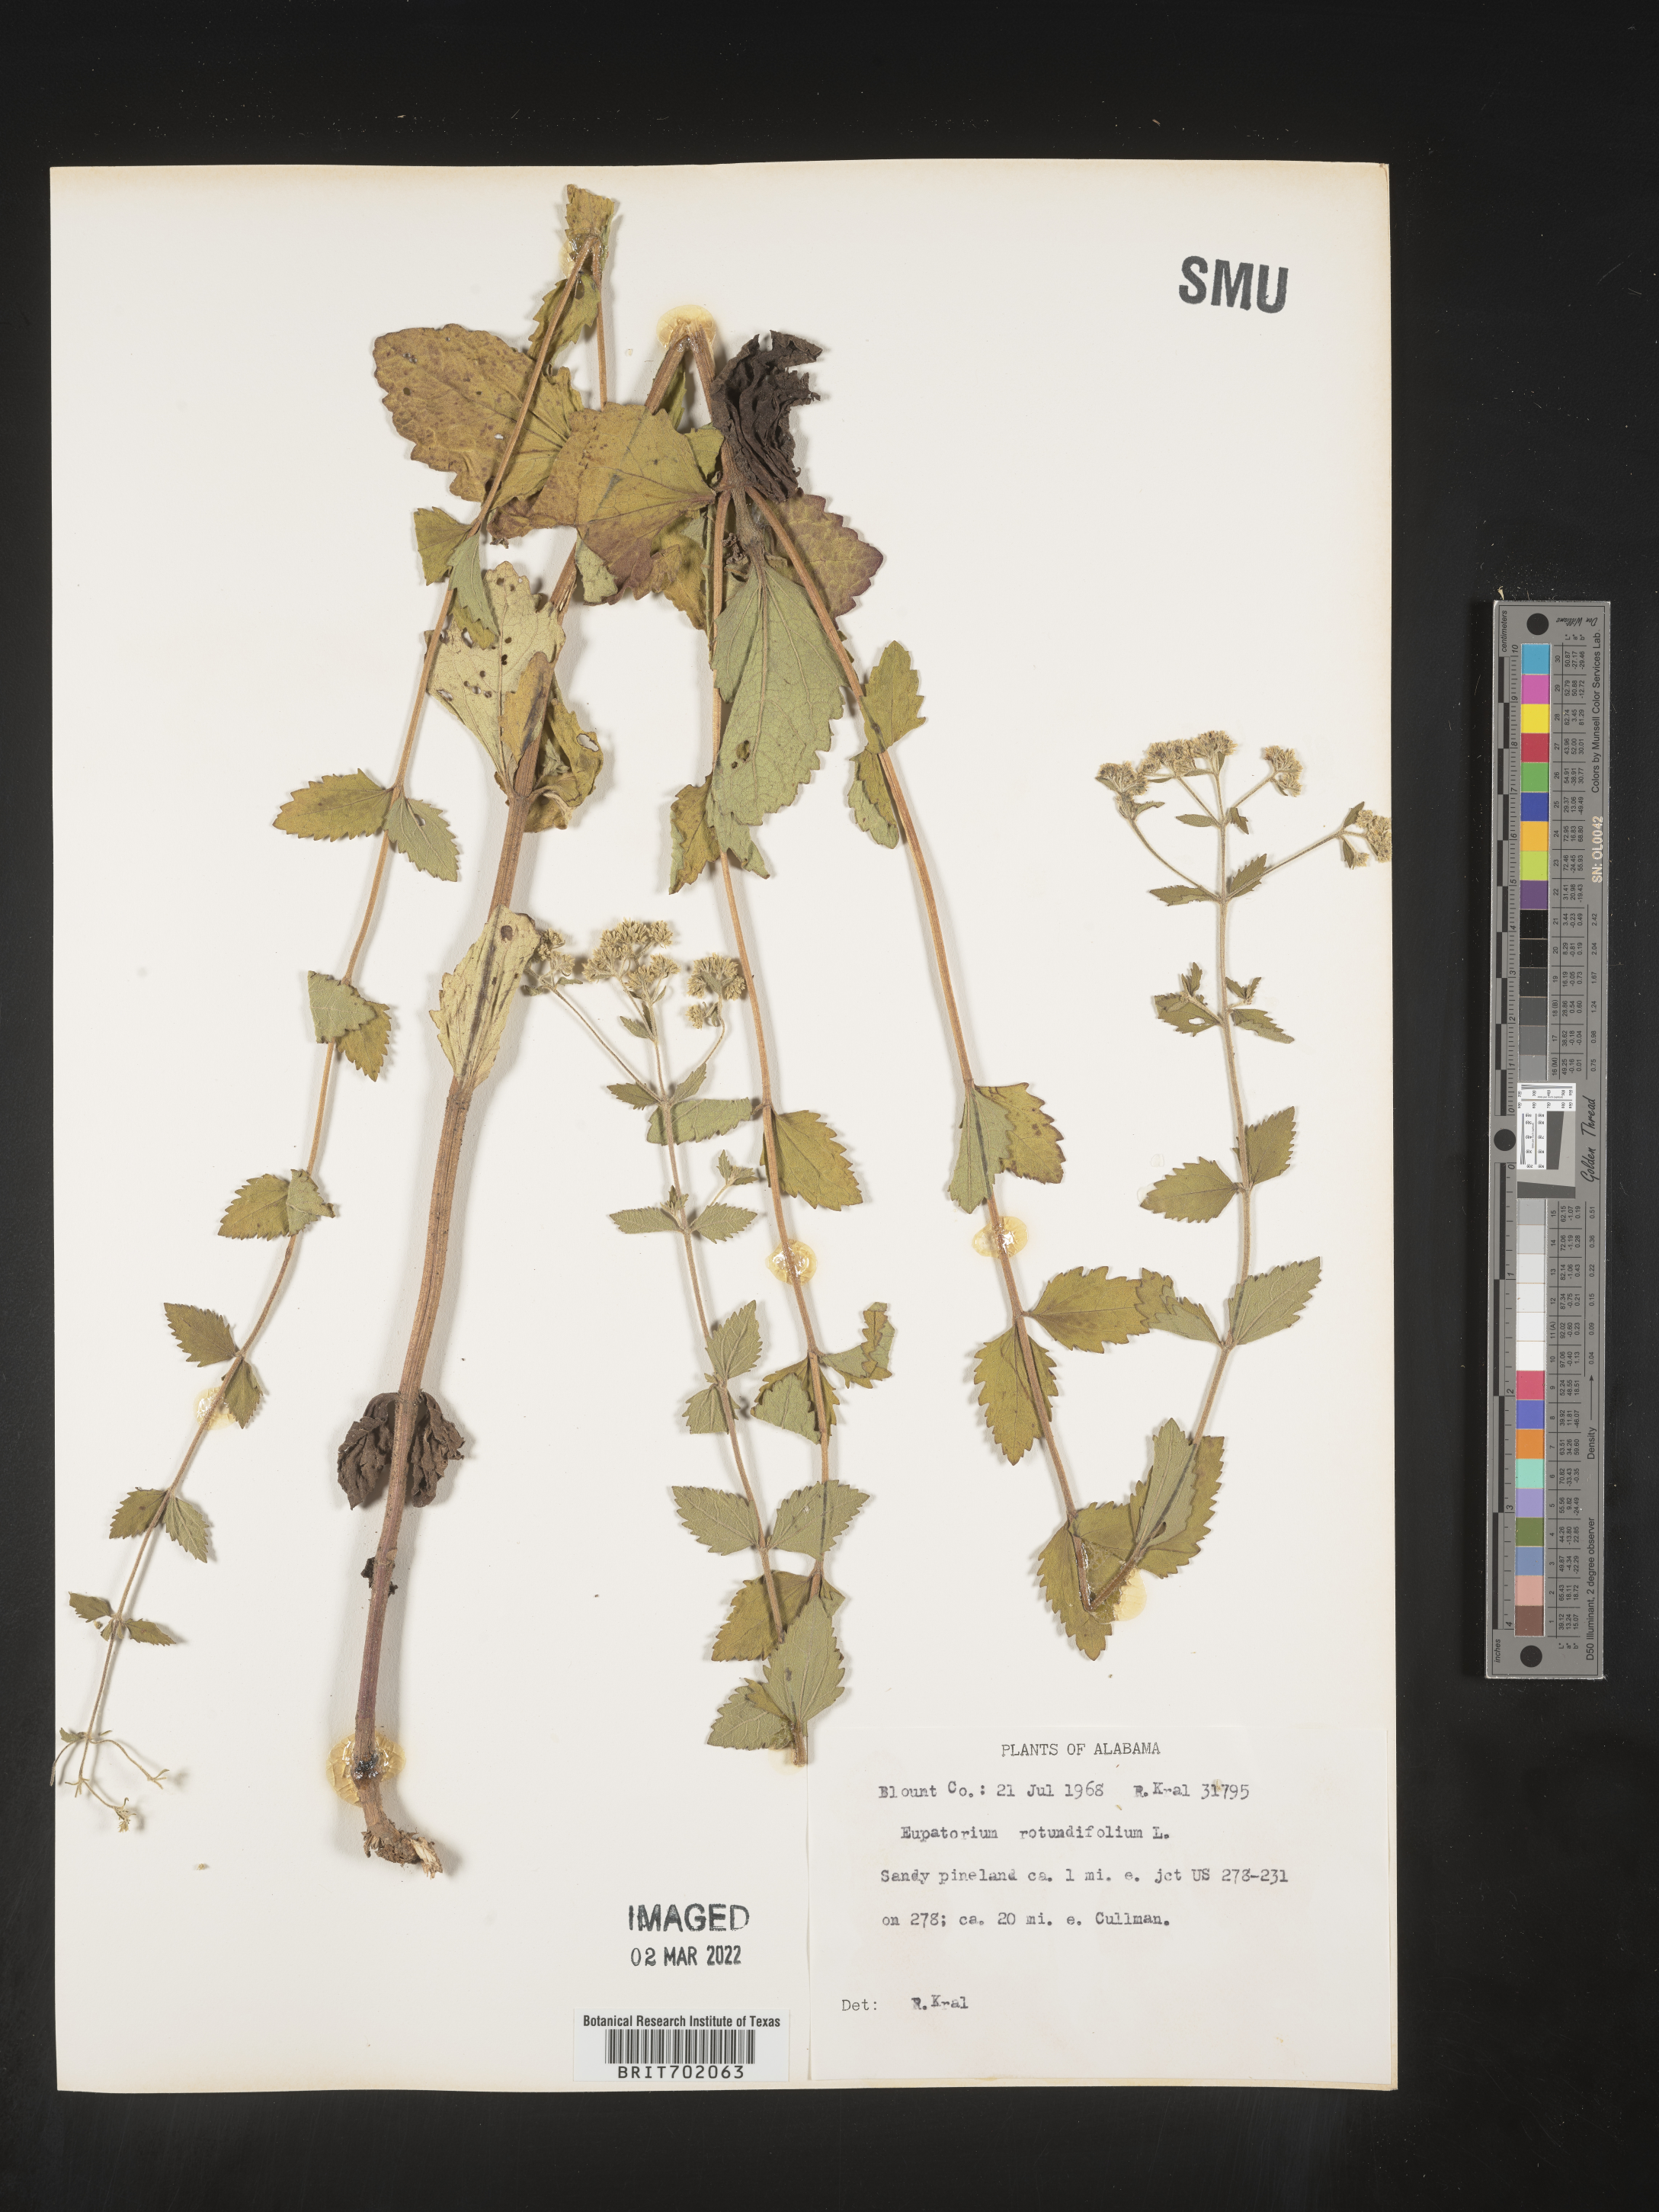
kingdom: Plantae
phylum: Tracheophyta
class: Magnoliopsida
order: Asterales
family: Asteraceae
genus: Eupatorium
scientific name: Eupatorium rotundifolium
